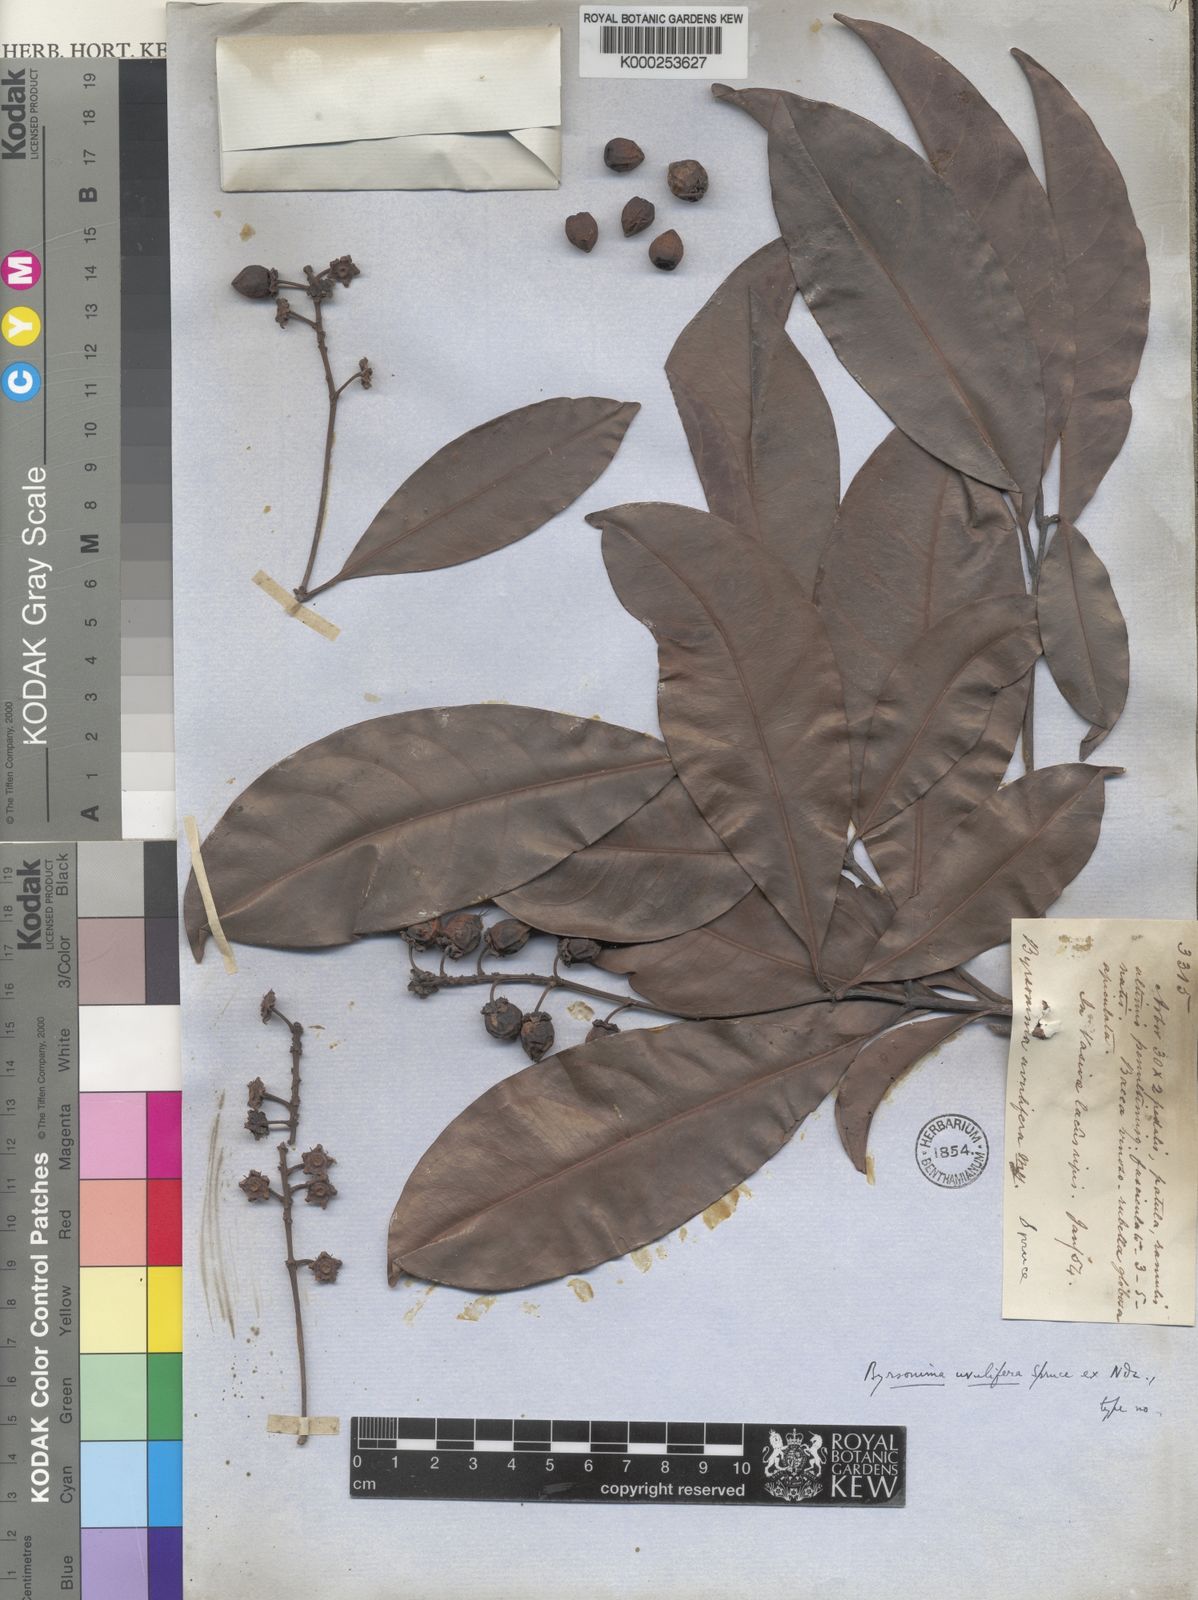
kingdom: Plantae
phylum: Tracheophyta
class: Magnoliopsida
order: Malpighiales
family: Malpighiaceae
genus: Byrsonima
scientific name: Byrsonima
